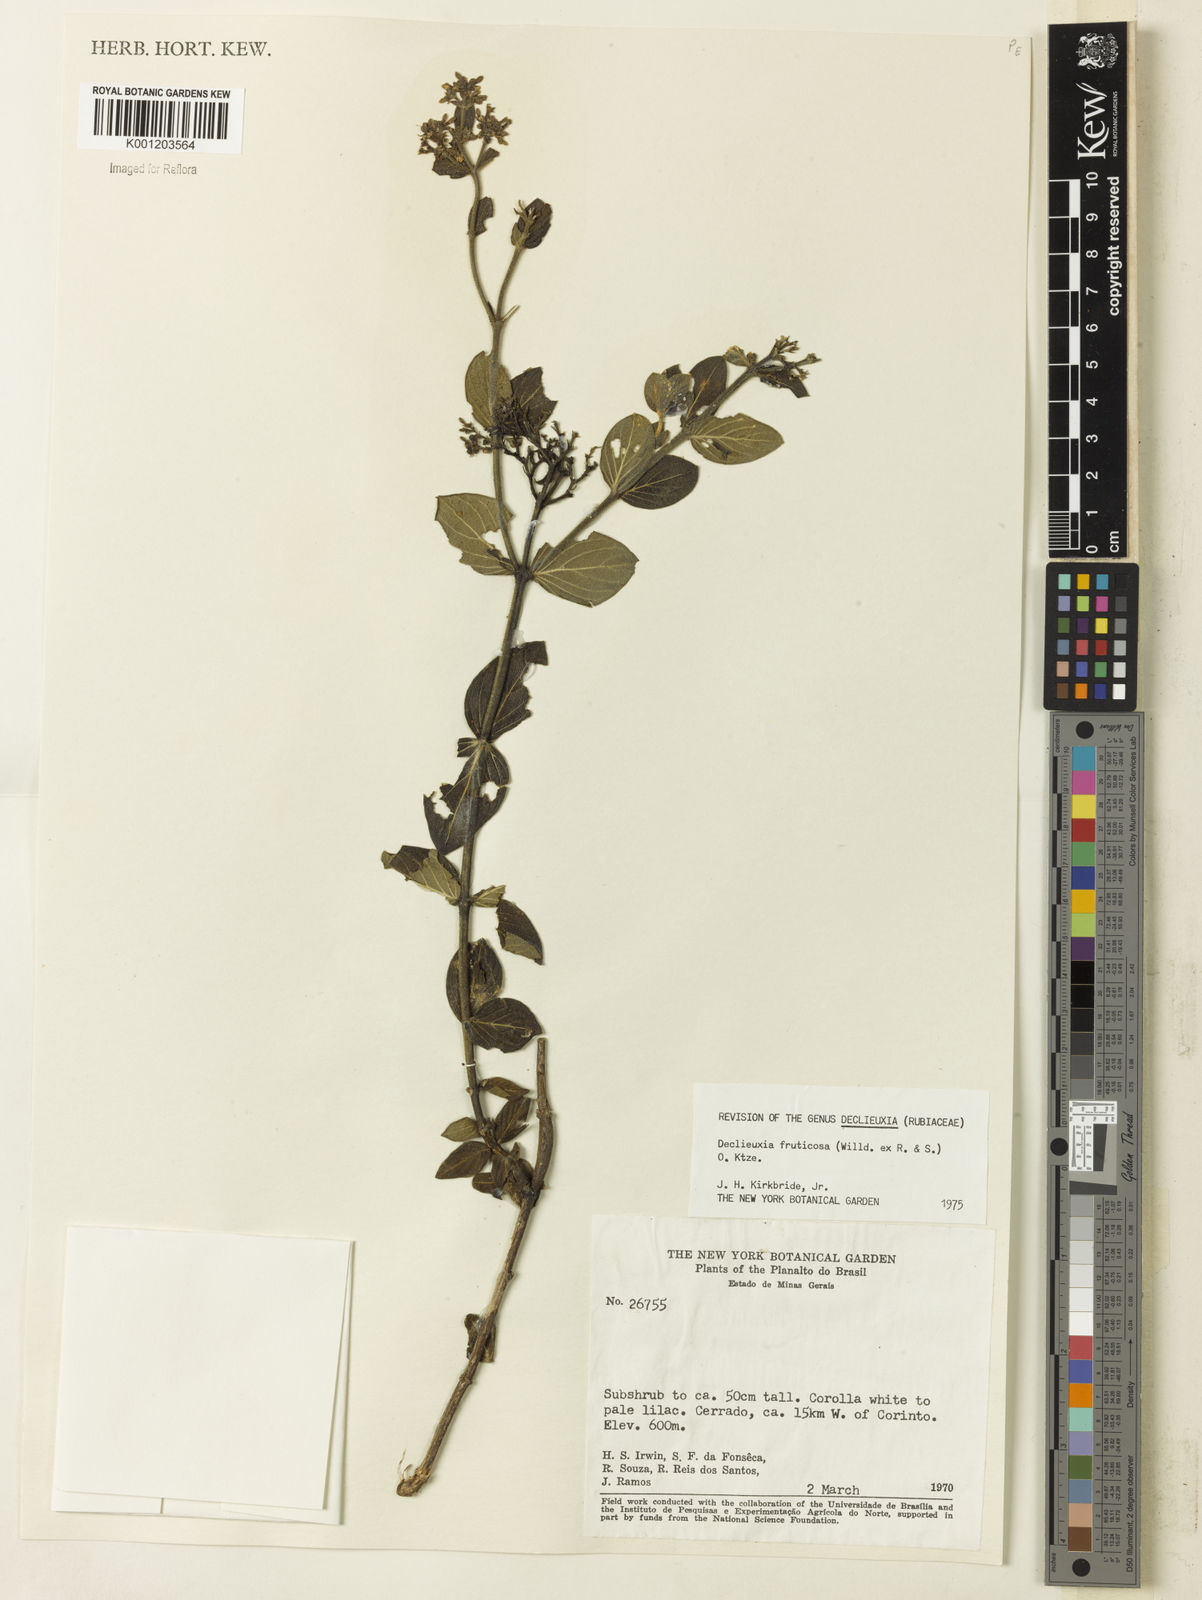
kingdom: Plantae
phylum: Tracheophyta
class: Magnoliopsida
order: Gentianales
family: Rubiaceae
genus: Declieuxia
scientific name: Declieuxia fruticosa
